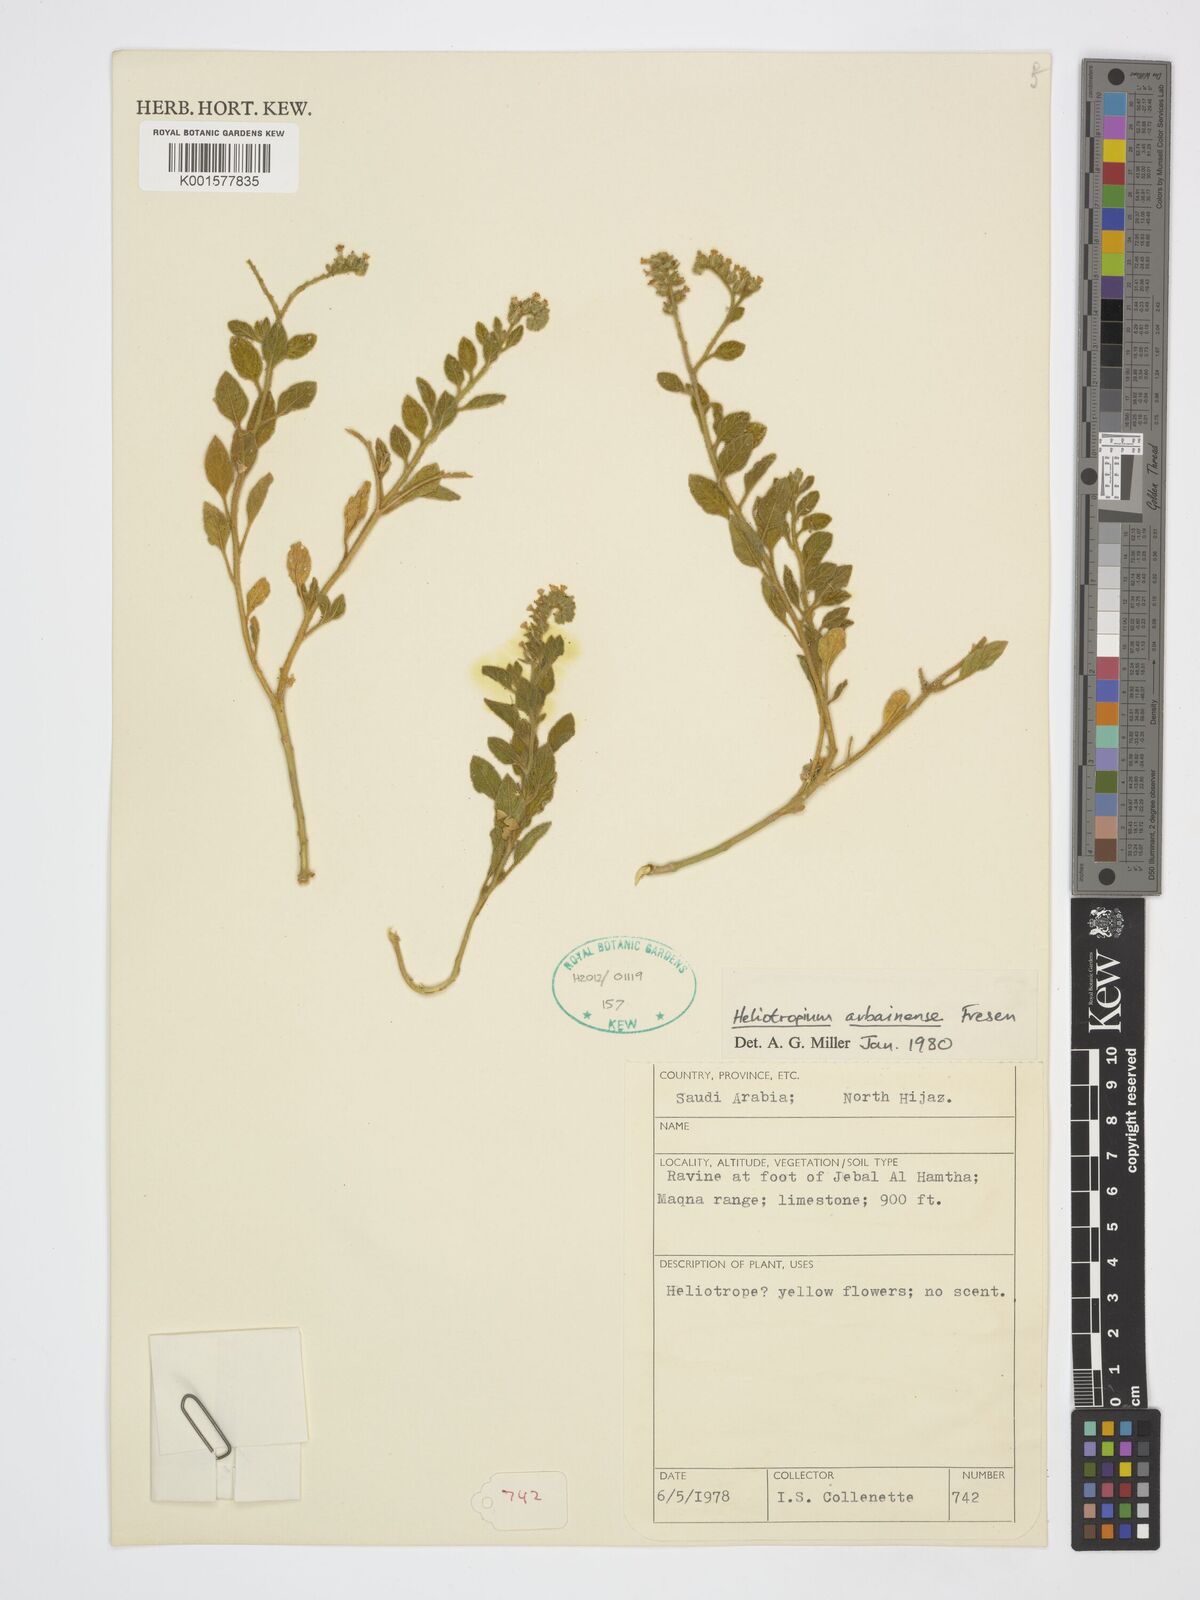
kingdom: Plantae
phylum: Tracheophyta
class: Magnoliopsida
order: Boraginales
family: Heliotropiaceae
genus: Heliotropium
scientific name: Heliotropium arbainense
